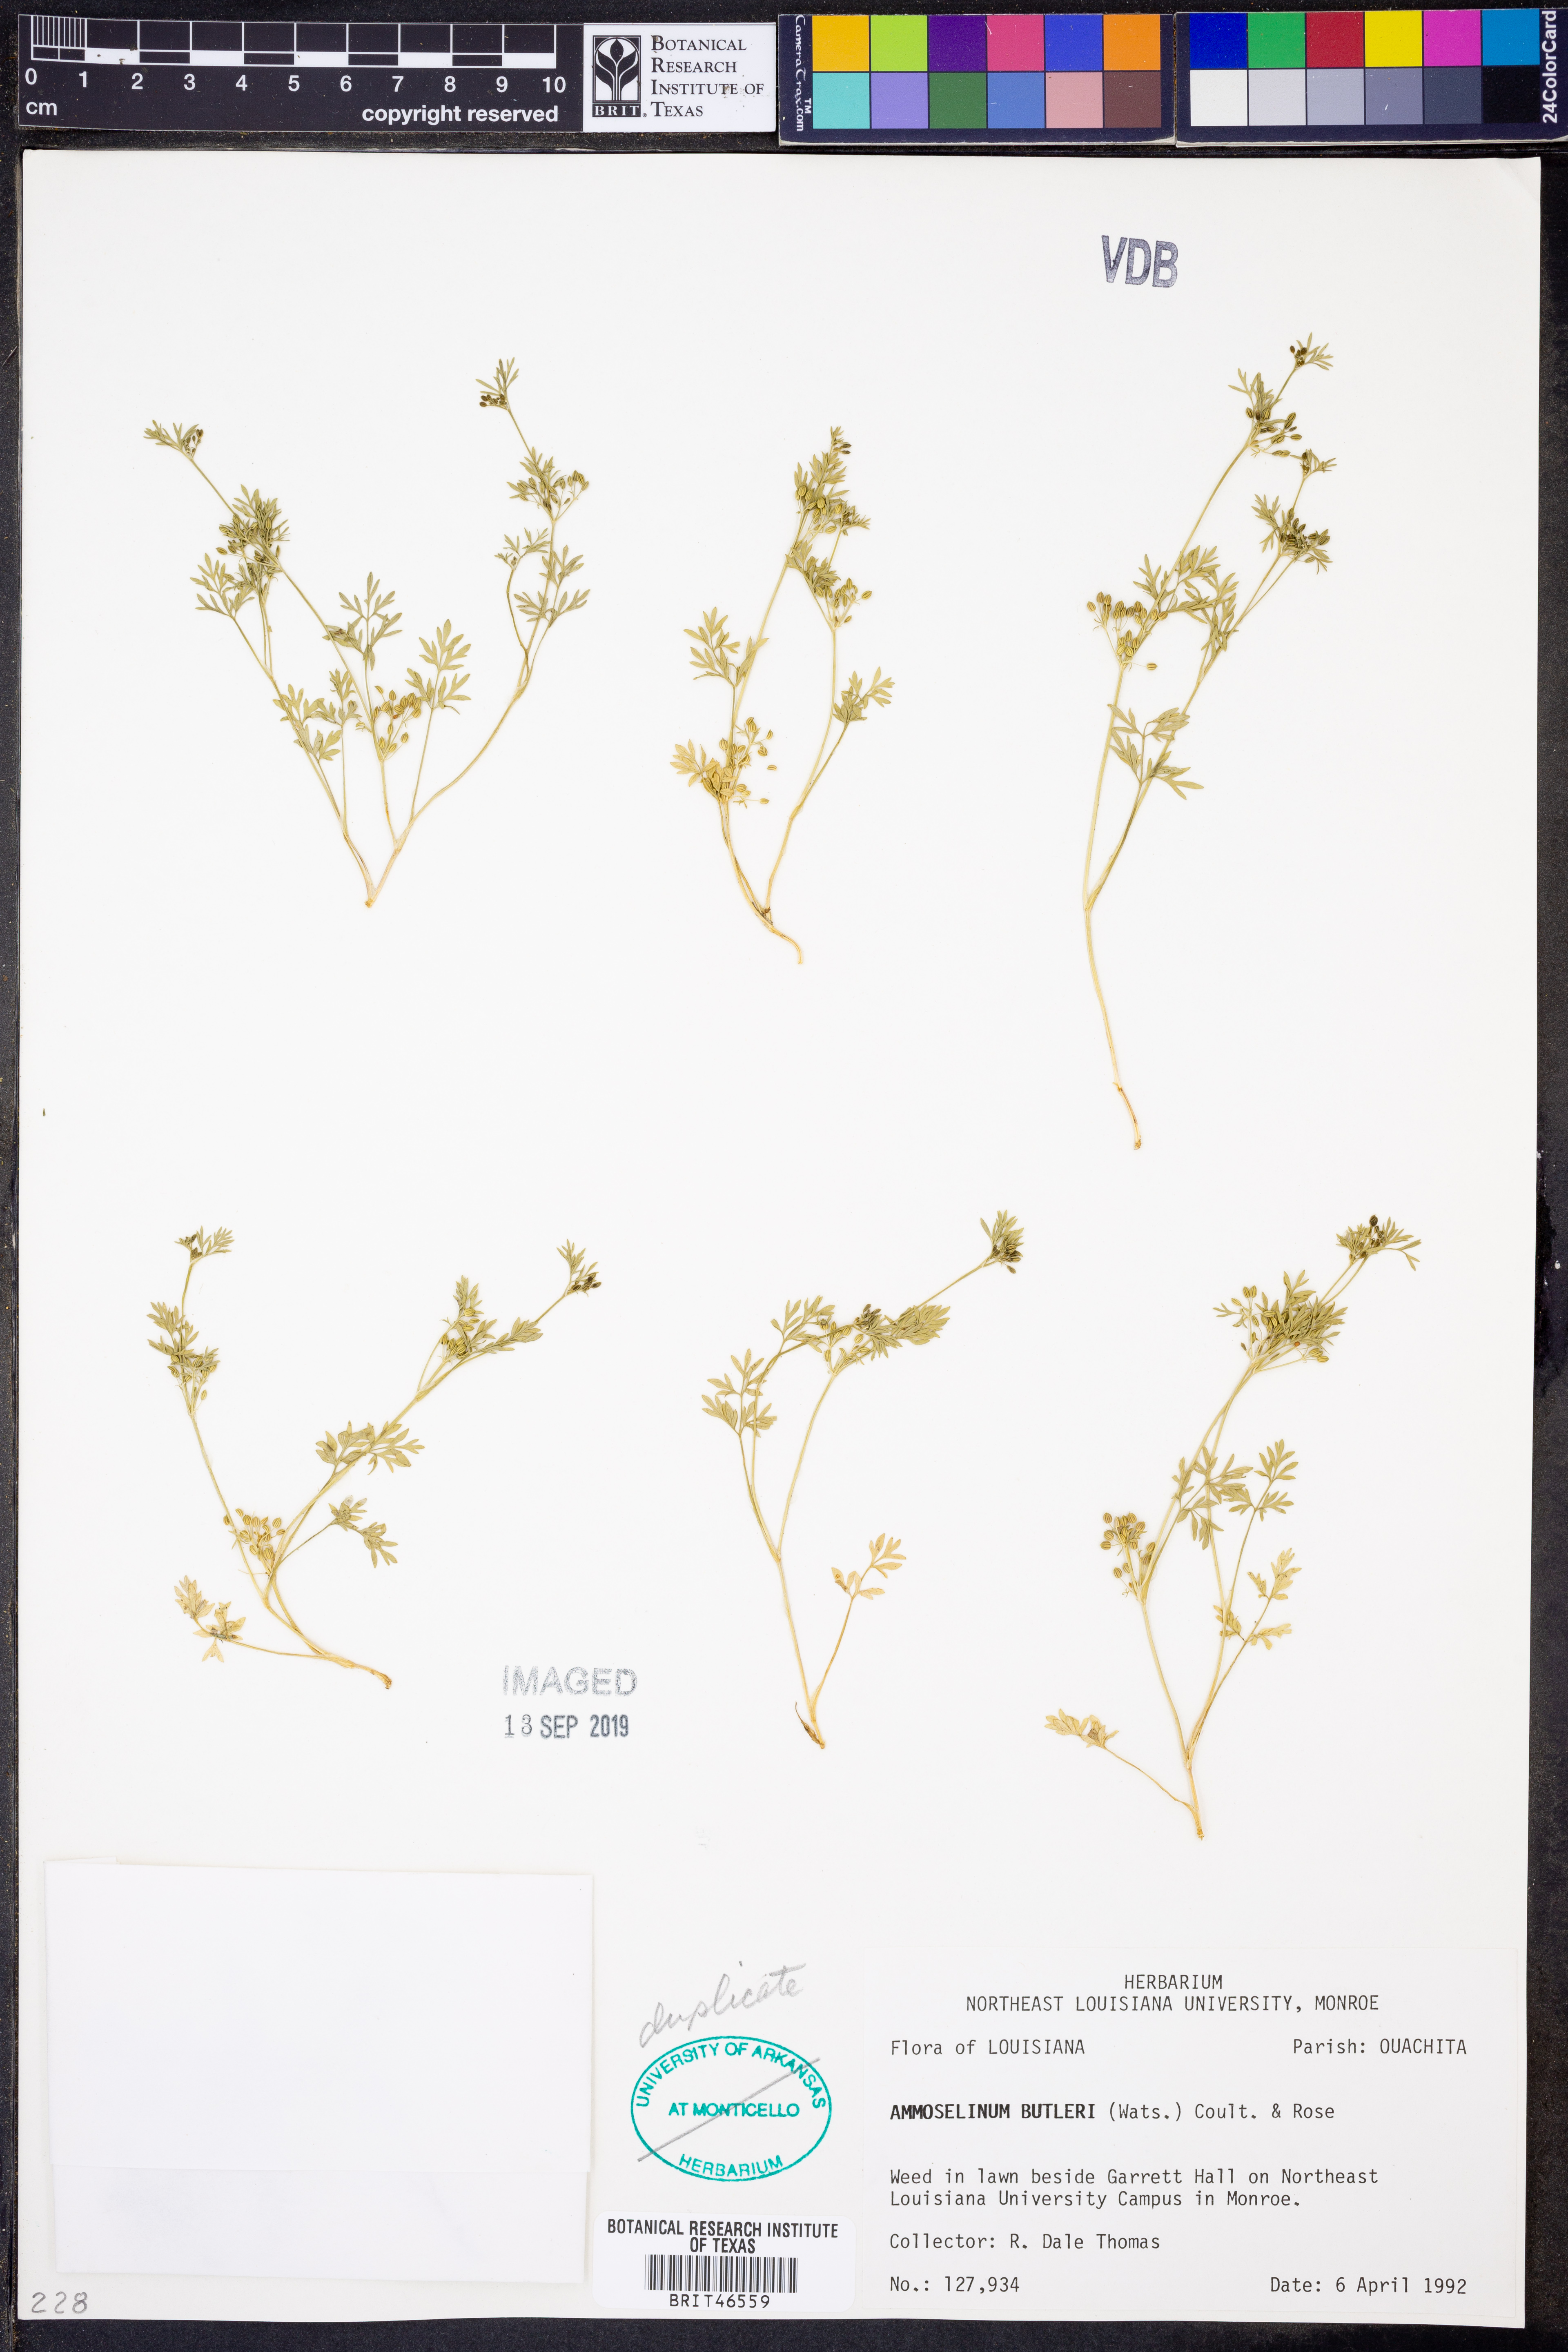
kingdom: Plantae
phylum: Tracheophyta
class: Magnoliopsida
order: Apiales
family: Apiaceae
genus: Ammoselinum
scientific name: Ammoselinum butleri
